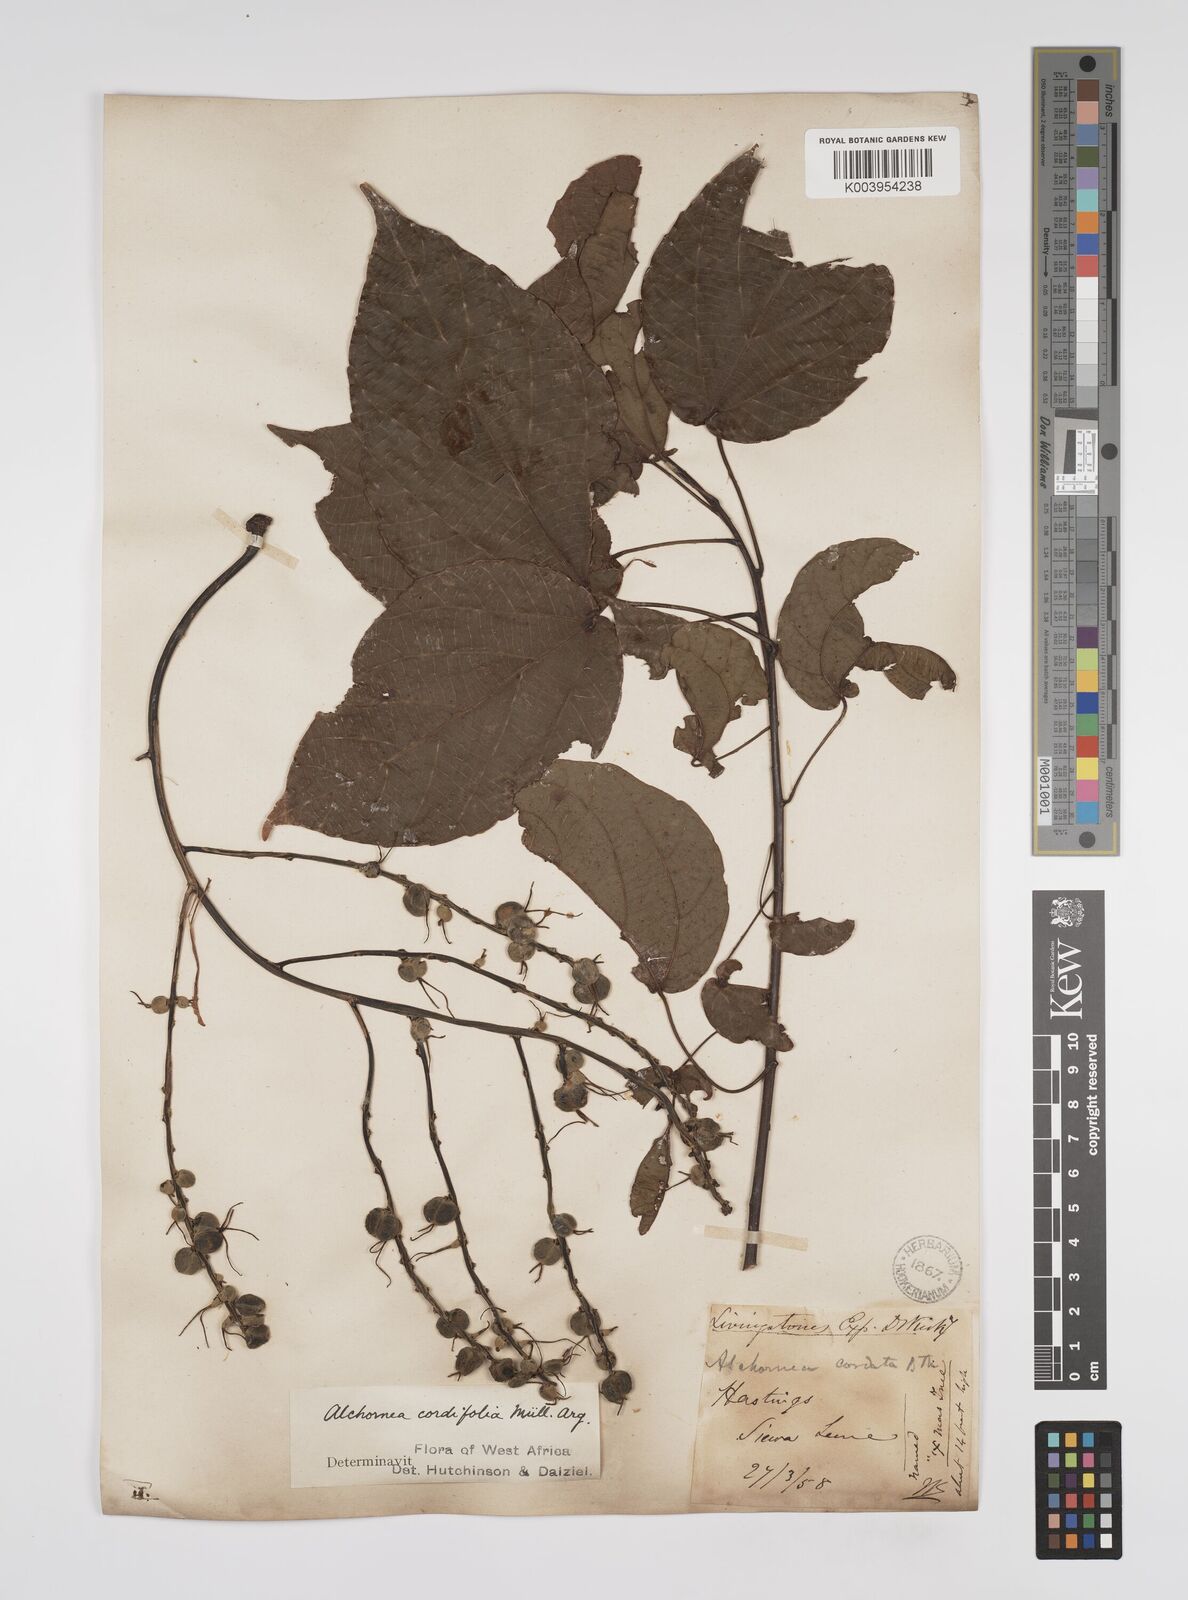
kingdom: Plantae
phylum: Tracheophyta
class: Magnoliopsida
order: Malpighiales
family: Euphorbiaceae
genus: Alchornea
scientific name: Alchornea cordifolia
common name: Christmasbush
